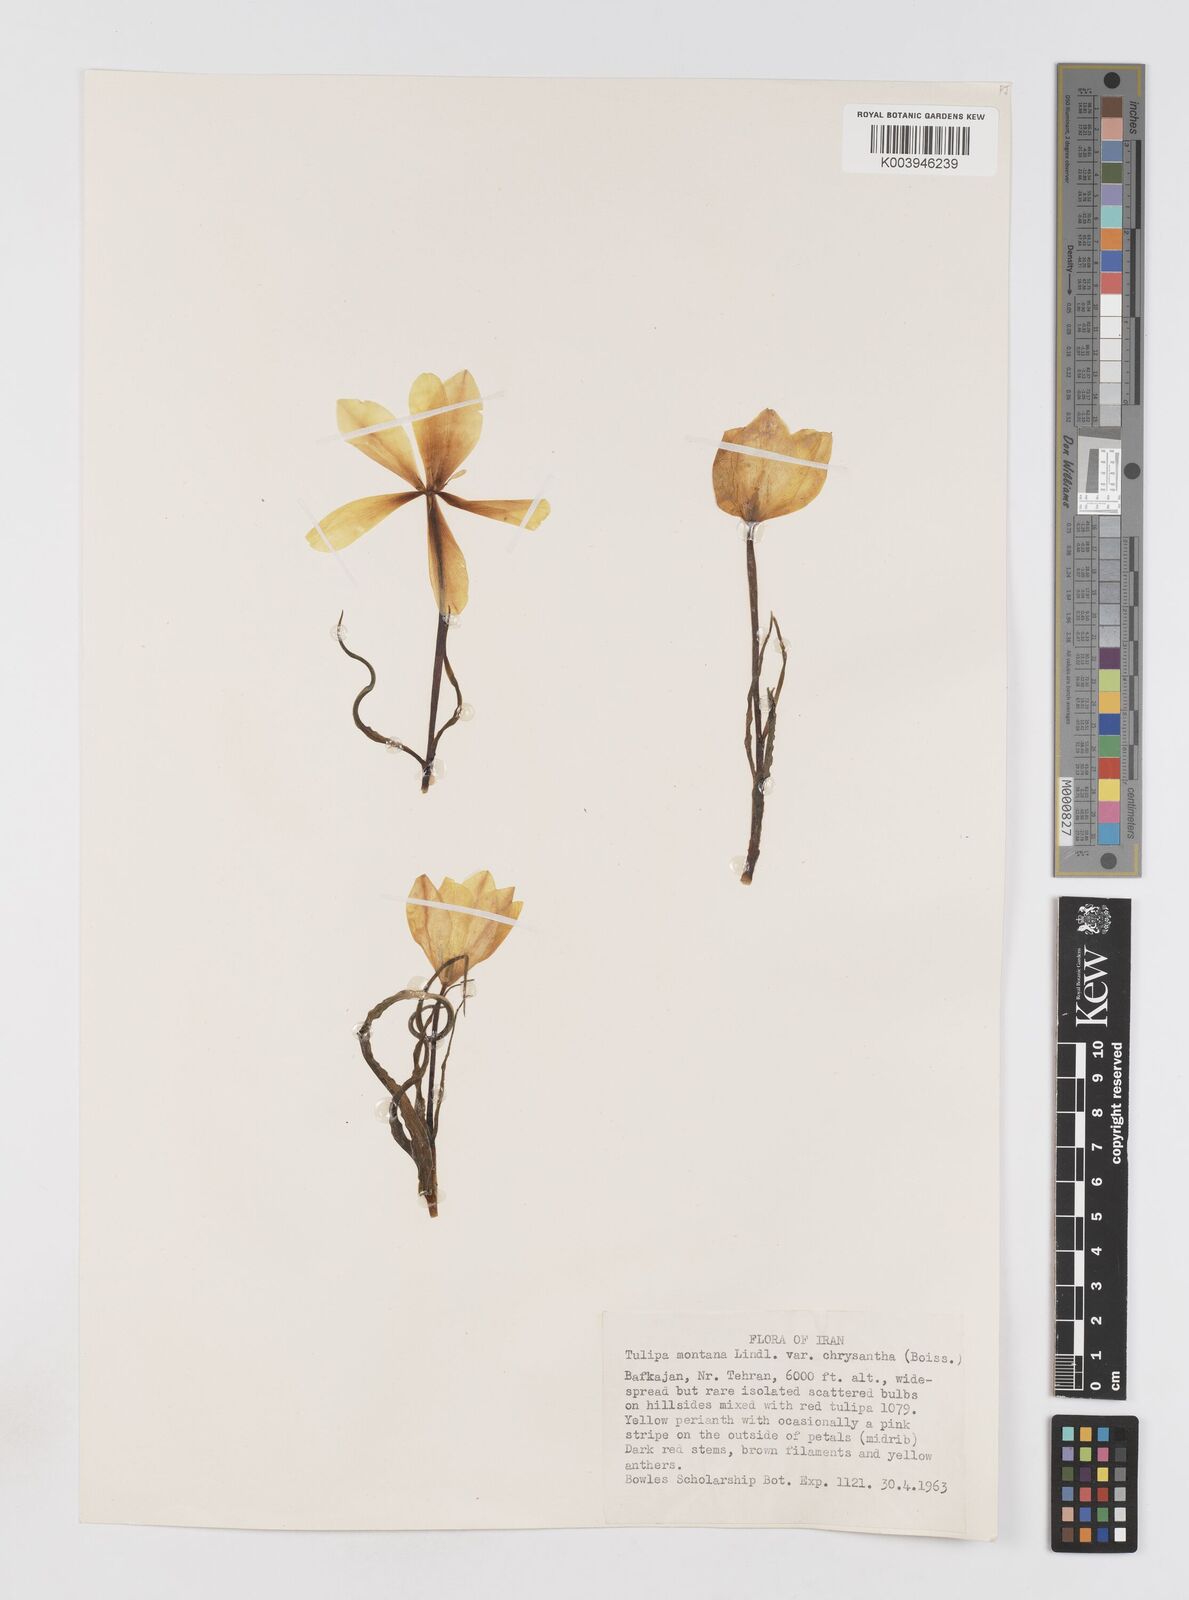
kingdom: Plantae
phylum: Tracheophyta
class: Liliopsida
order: Liliales
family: Liliaceae
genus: Tulipa
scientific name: Tulipa montana
